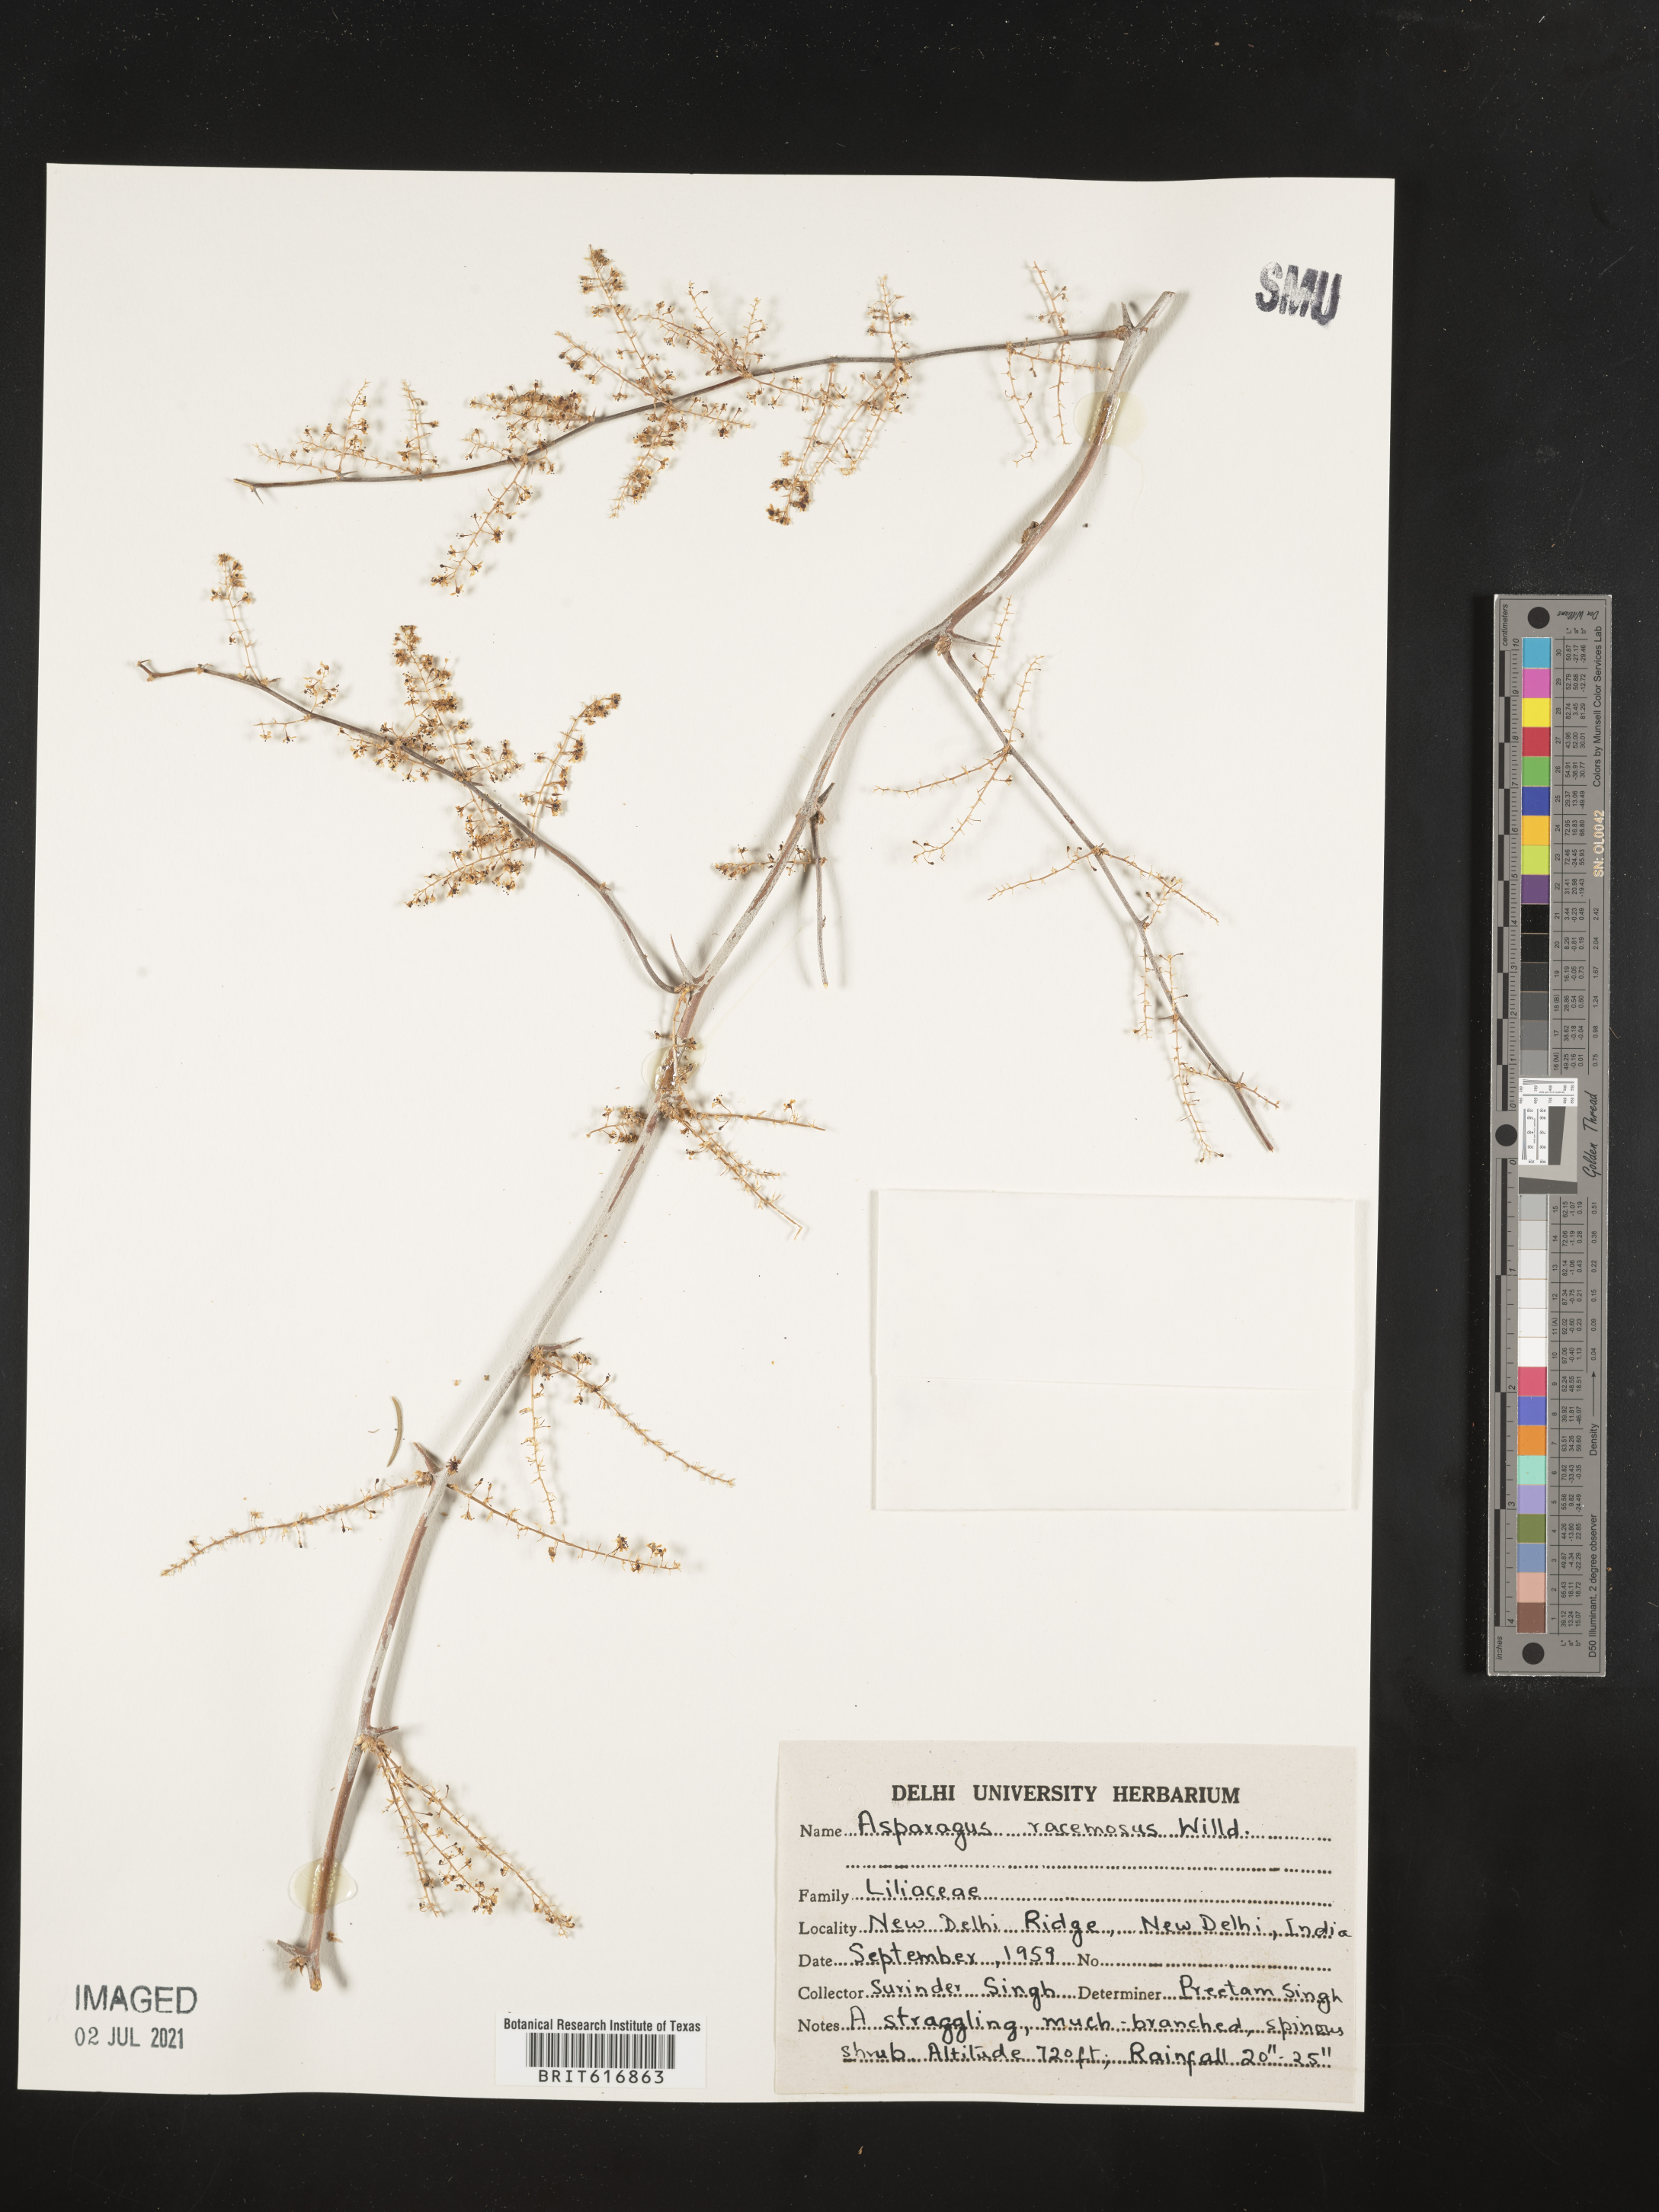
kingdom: Plantae
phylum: Tracheophyta
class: Liliopsida
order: Asparagales
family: Asparagaceae
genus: Asparagus
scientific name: Asparagus racemosus
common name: Asparagus-fern
